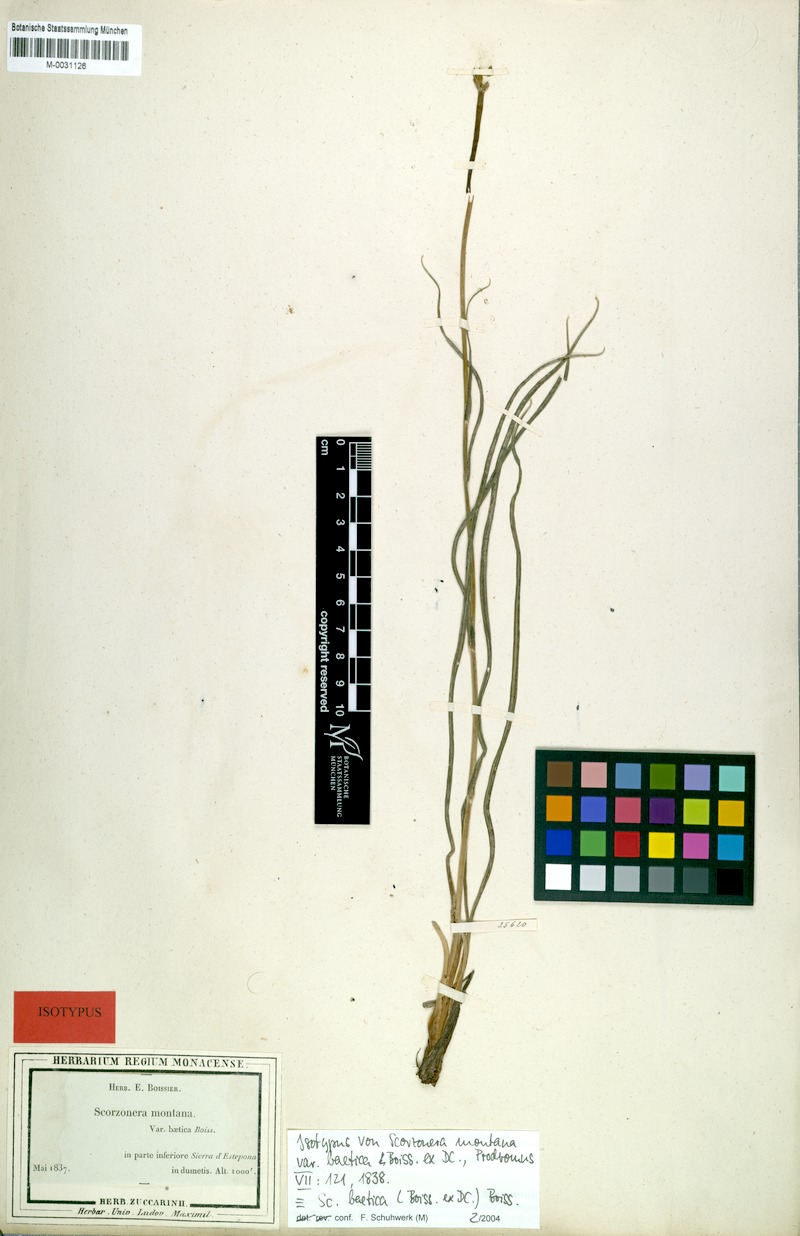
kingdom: Plantae
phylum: Tracheophyta
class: Magnoliopsida
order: Asterales
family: Asteraceae
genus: Scorzonera
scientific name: Scorzonera baetica
